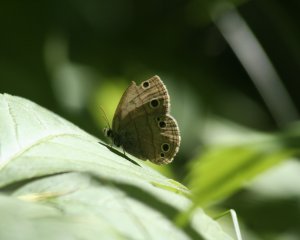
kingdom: Animalia
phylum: Arthropoda
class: Insecta
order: Lepidoptera
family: Nymphalidae
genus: Euptychia
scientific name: Euptychia cymela
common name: Little Wood Satyr
